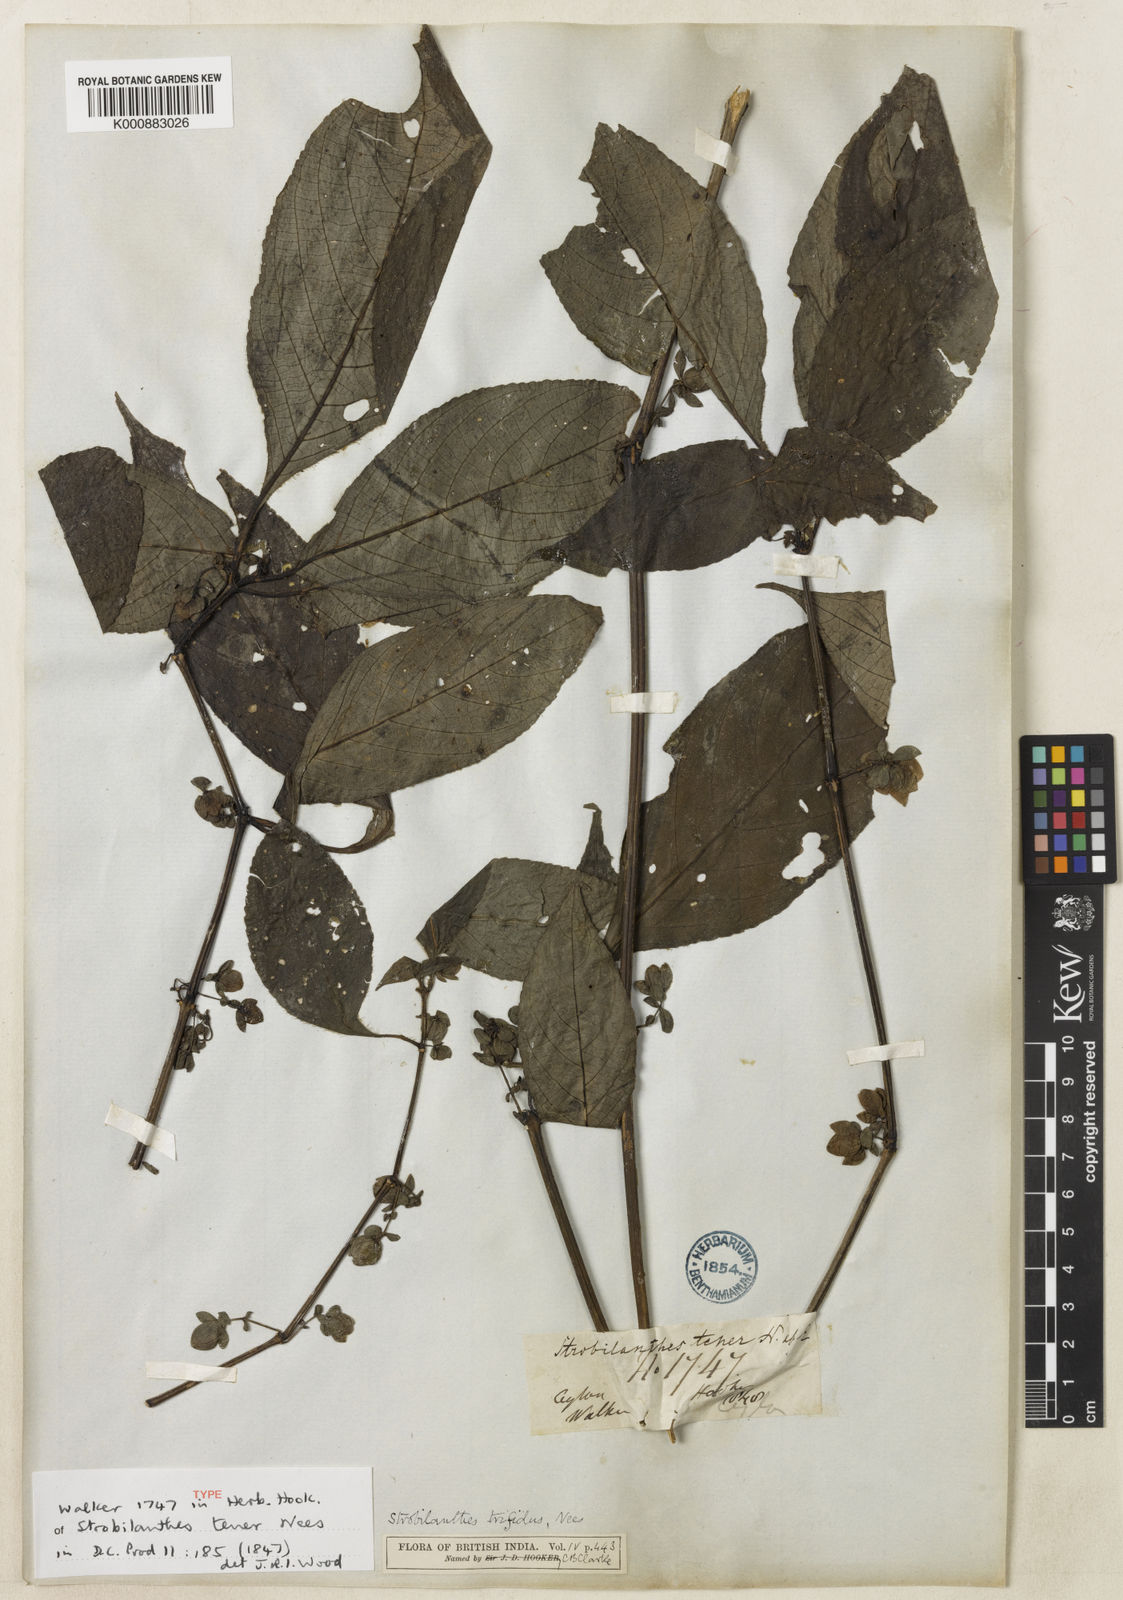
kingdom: Plantae
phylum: Tracheophyta
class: Magnoliopsida
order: Lamiales
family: Acanthaceae
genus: Strobilanthes
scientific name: Strobilanthes
